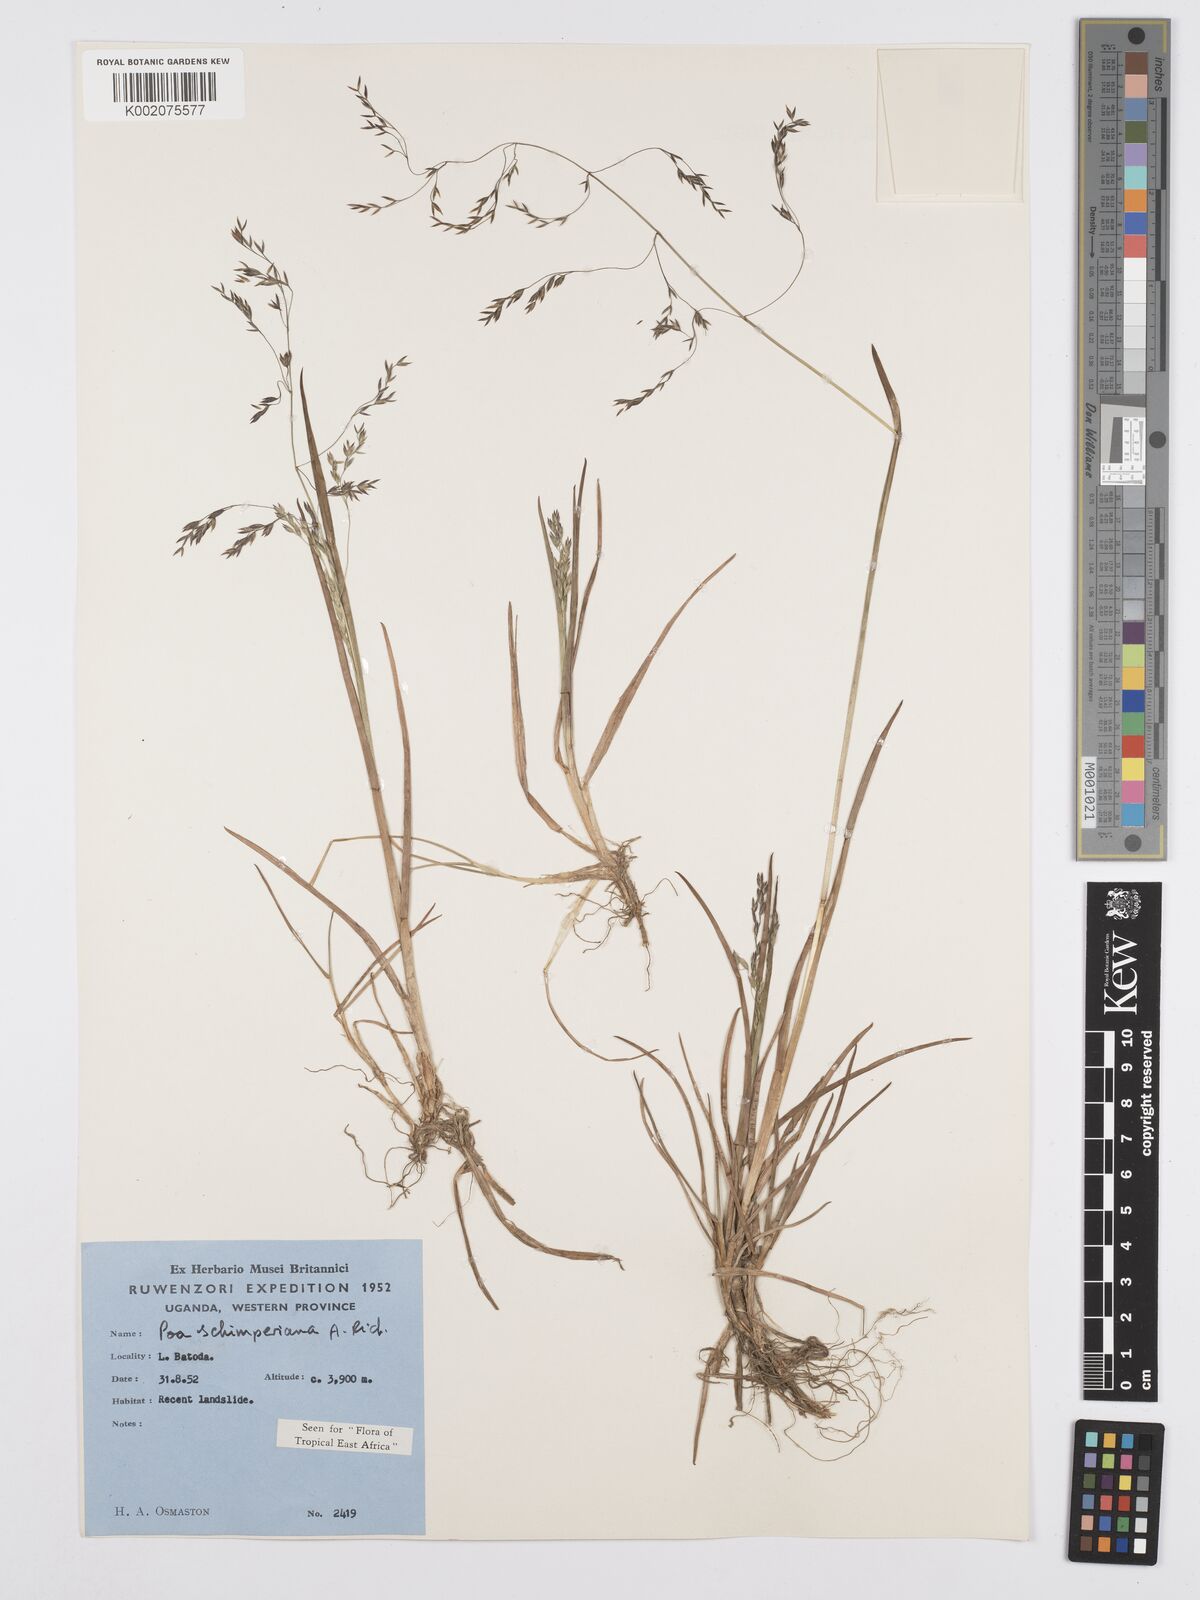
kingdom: Plantae
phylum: Tracheophyta
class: Liliopsida
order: Poales
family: Poaceae
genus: Poa
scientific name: Poa schimperiana
